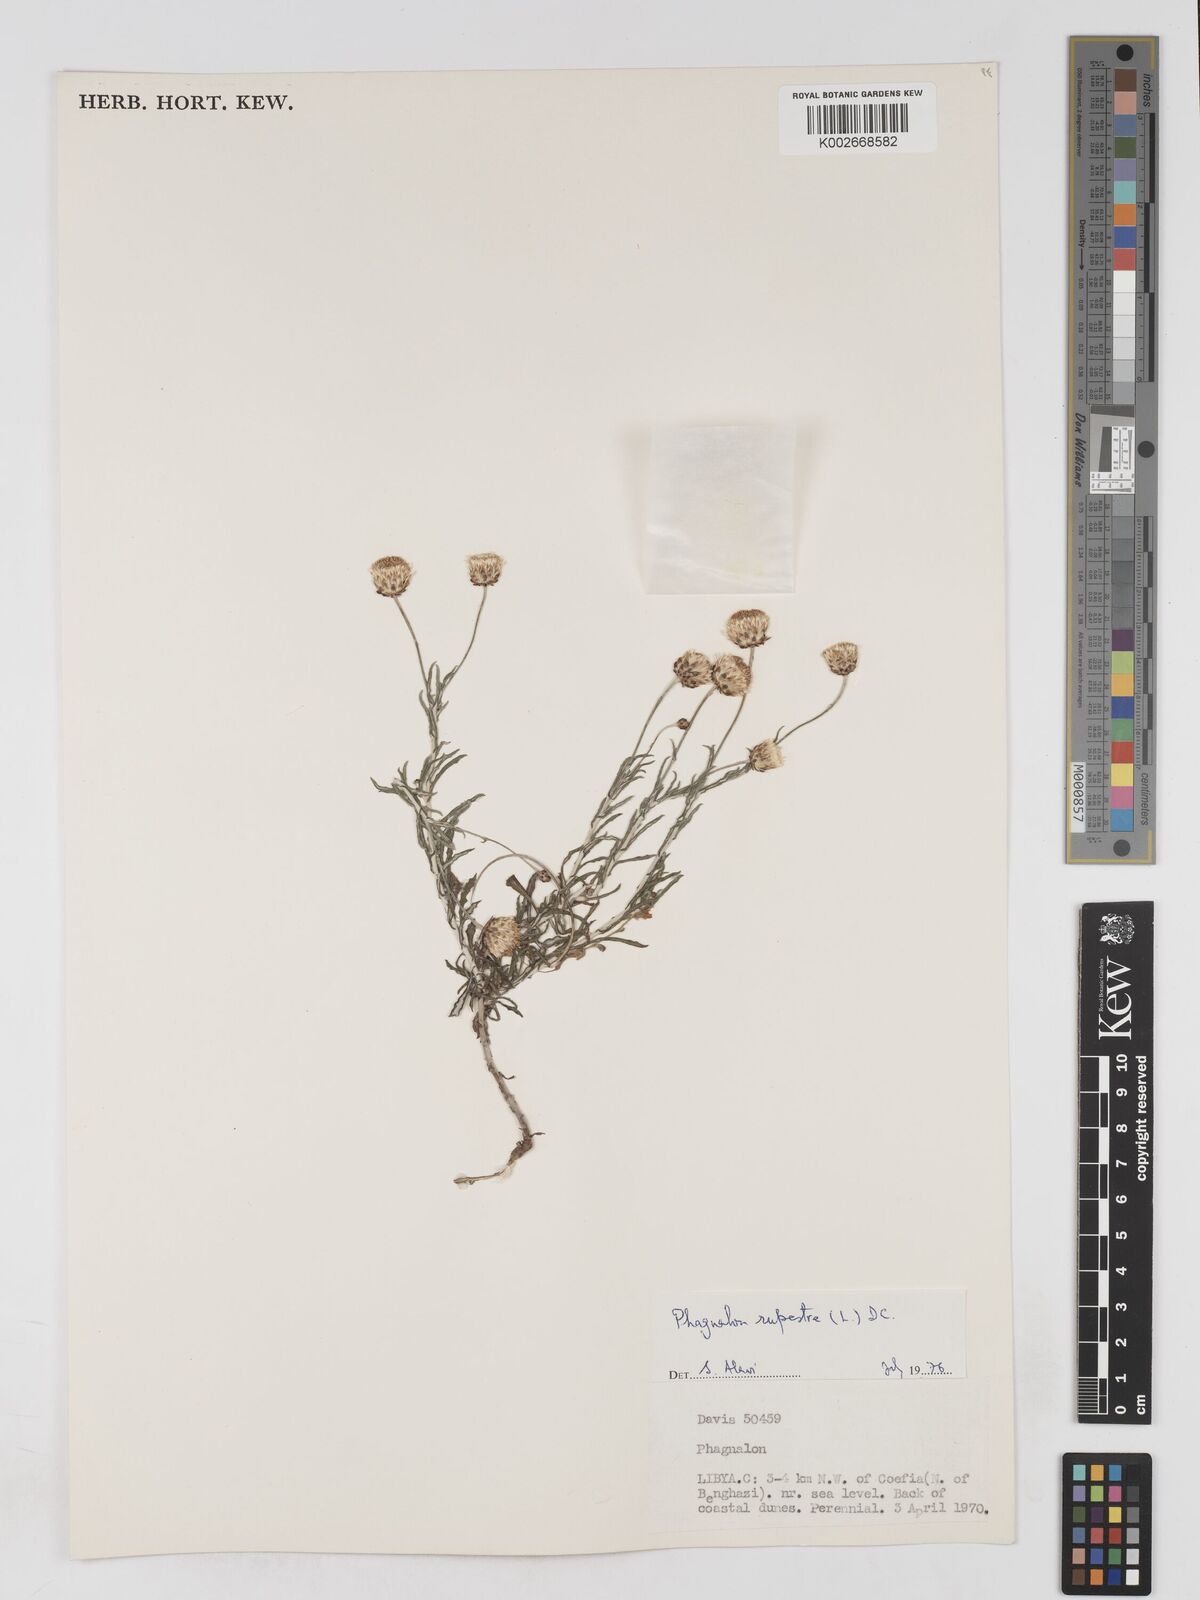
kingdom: Plantae
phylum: Tracheophyta
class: Magnoliopsida
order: Asterales
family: Asteraceae
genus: Phagnalon
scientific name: Phagnalon rupestre
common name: Rock phagnalon
